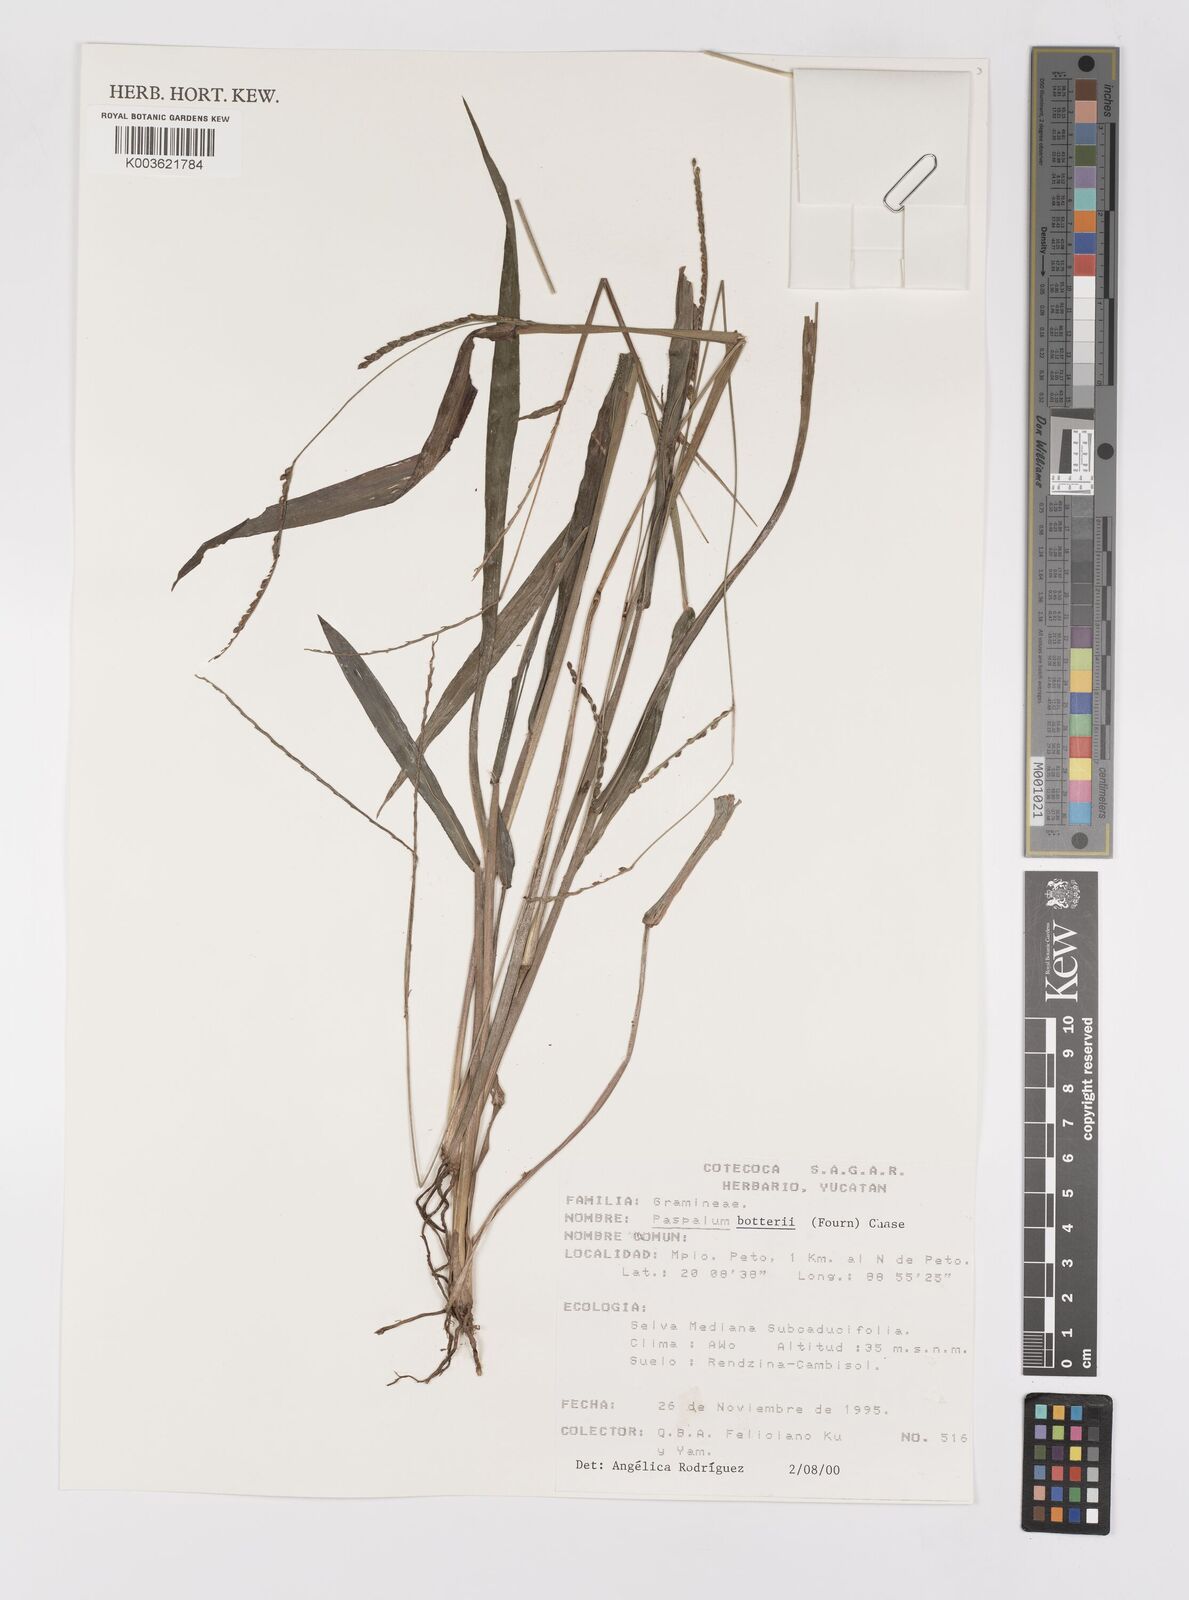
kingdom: Plantae
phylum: Tracheophyta
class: Liliopsida
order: Poales
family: Poaceae
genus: Paspalum
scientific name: Paspalum botterii
